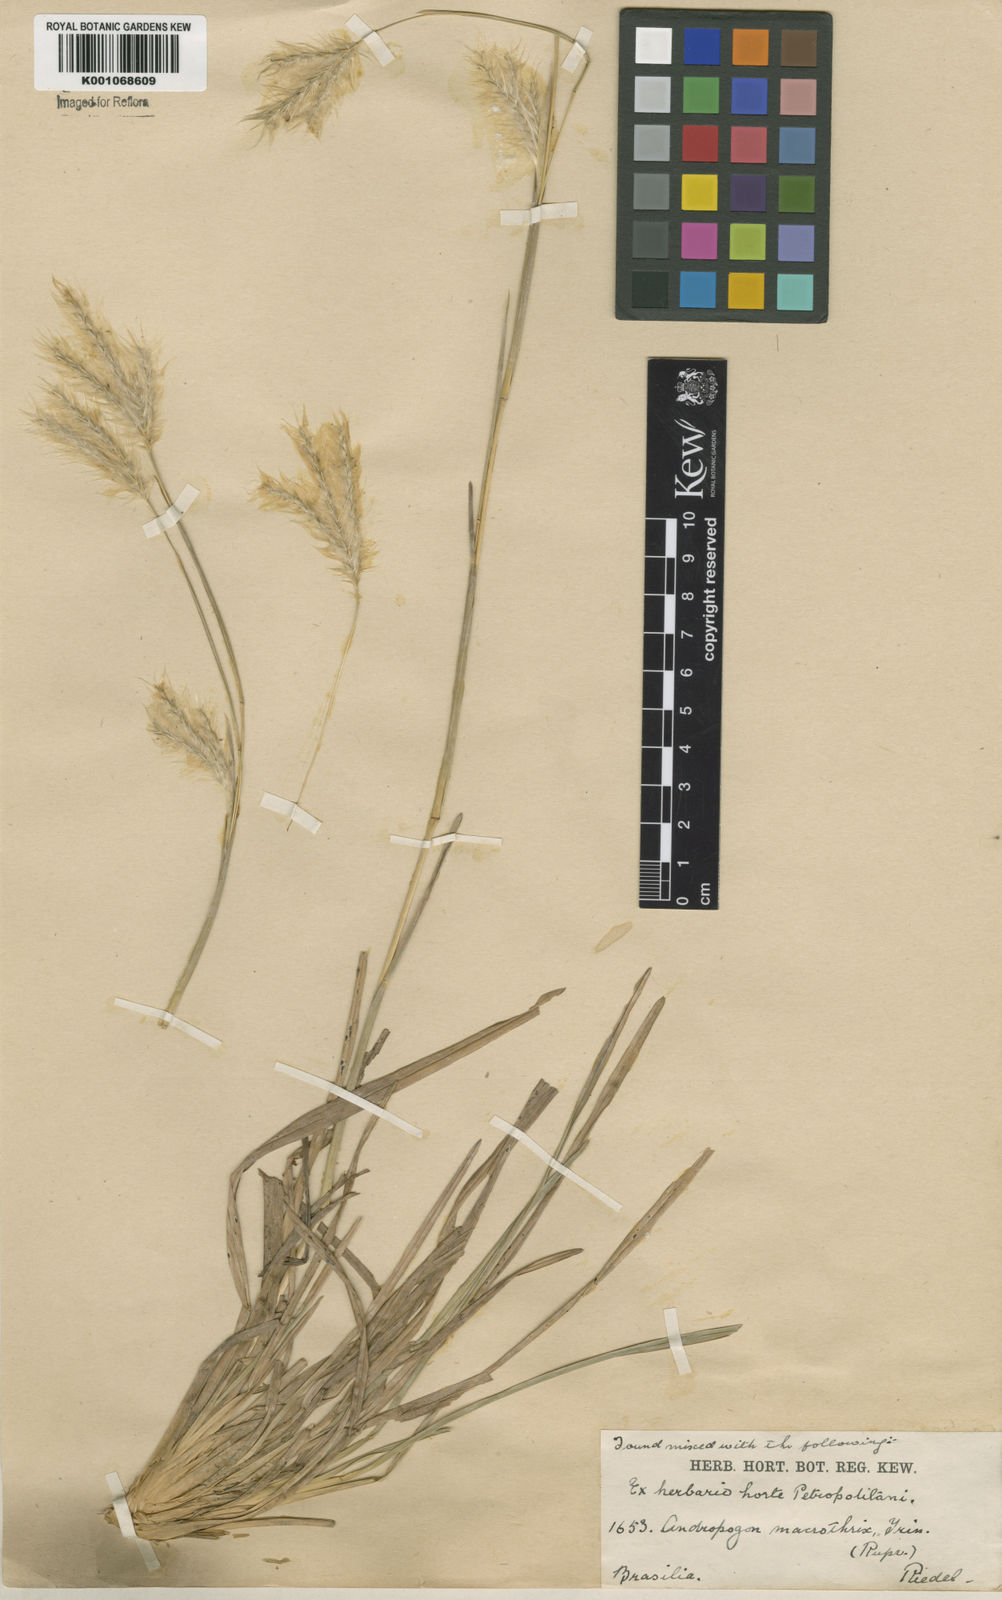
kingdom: Plantae
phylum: Tracheophyta
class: Liliopsida
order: Poales
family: Poaceae
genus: Andropogon
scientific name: Andropogon selloanus
